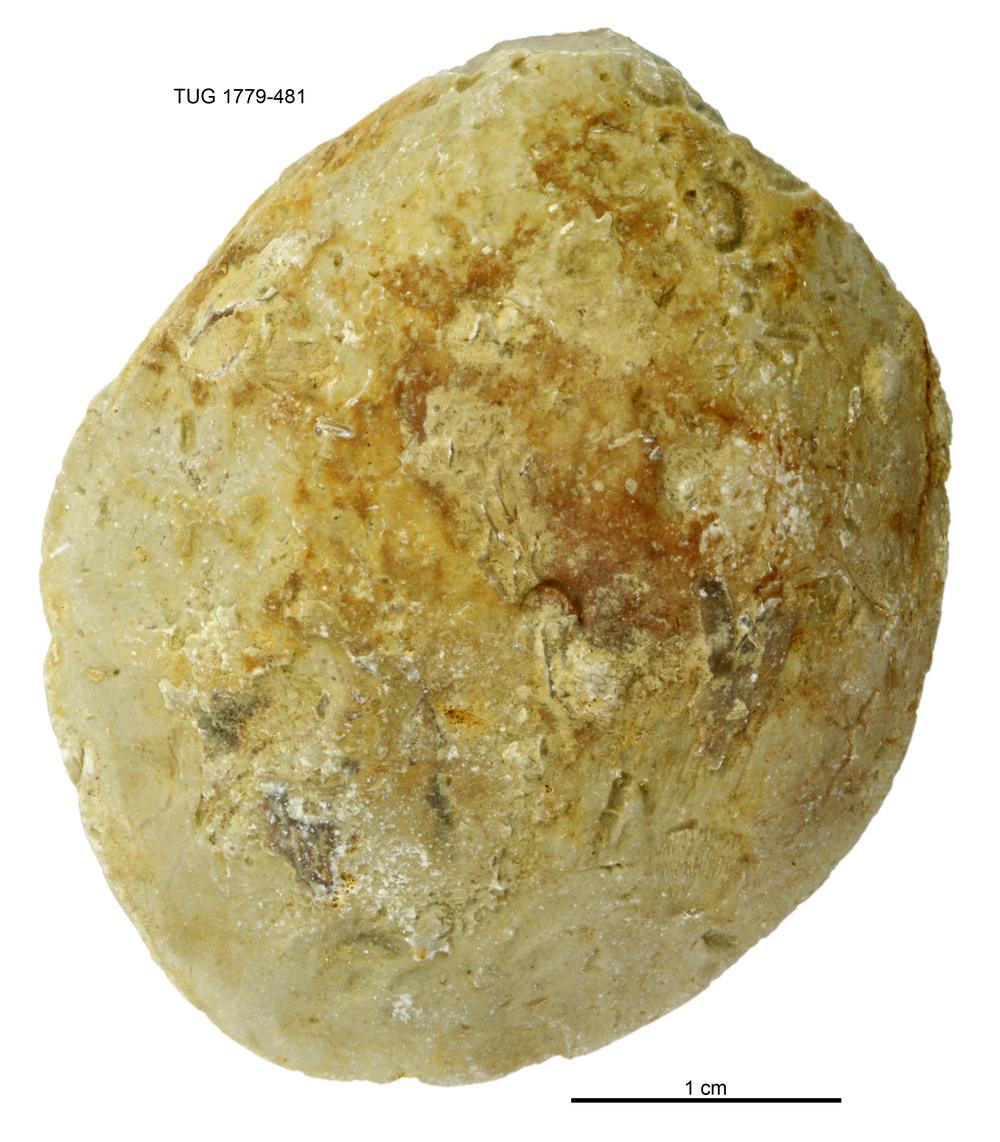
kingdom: Animalia
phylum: Mollusca
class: Bivalvia
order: Modiomorphida
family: Modiomorphidae
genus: Modiolopsis
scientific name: Modiolopsis
